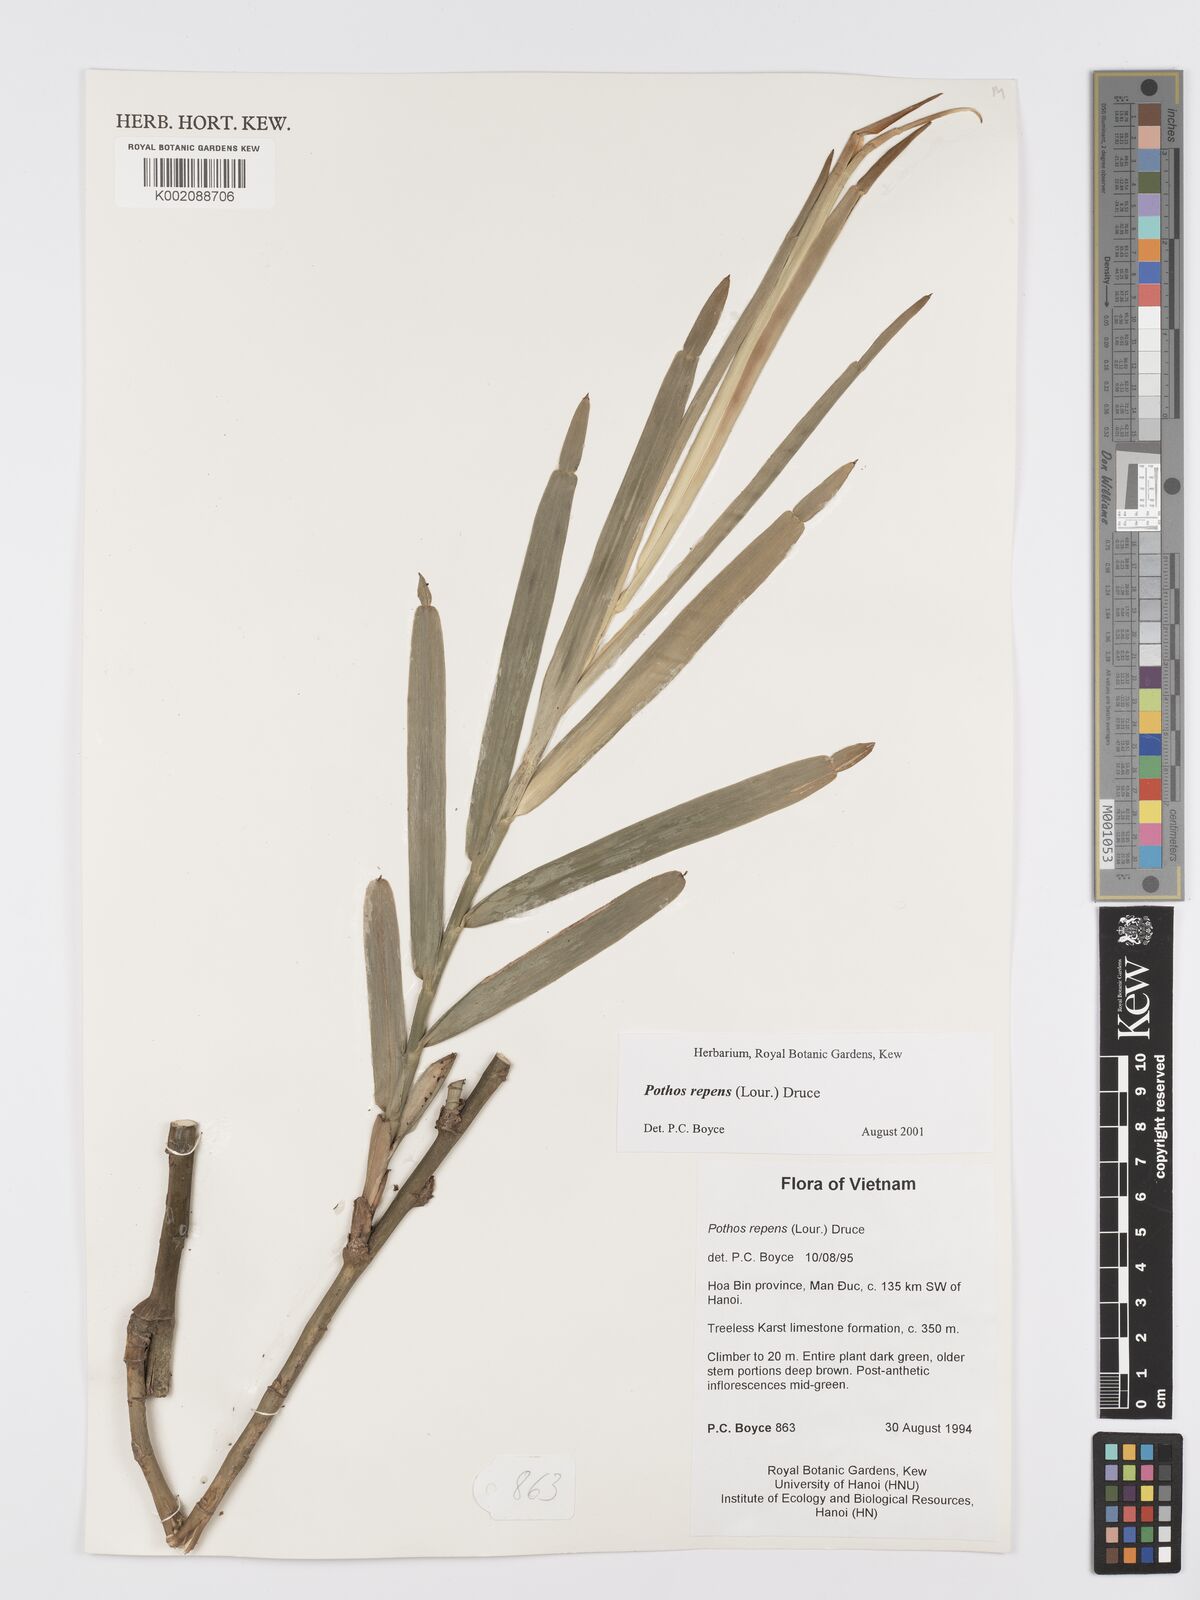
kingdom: Plantae
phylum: Tracheophyta
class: Liliopsida
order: Alismatales
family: Araceae
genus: Pothos
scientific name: Pothos repens
